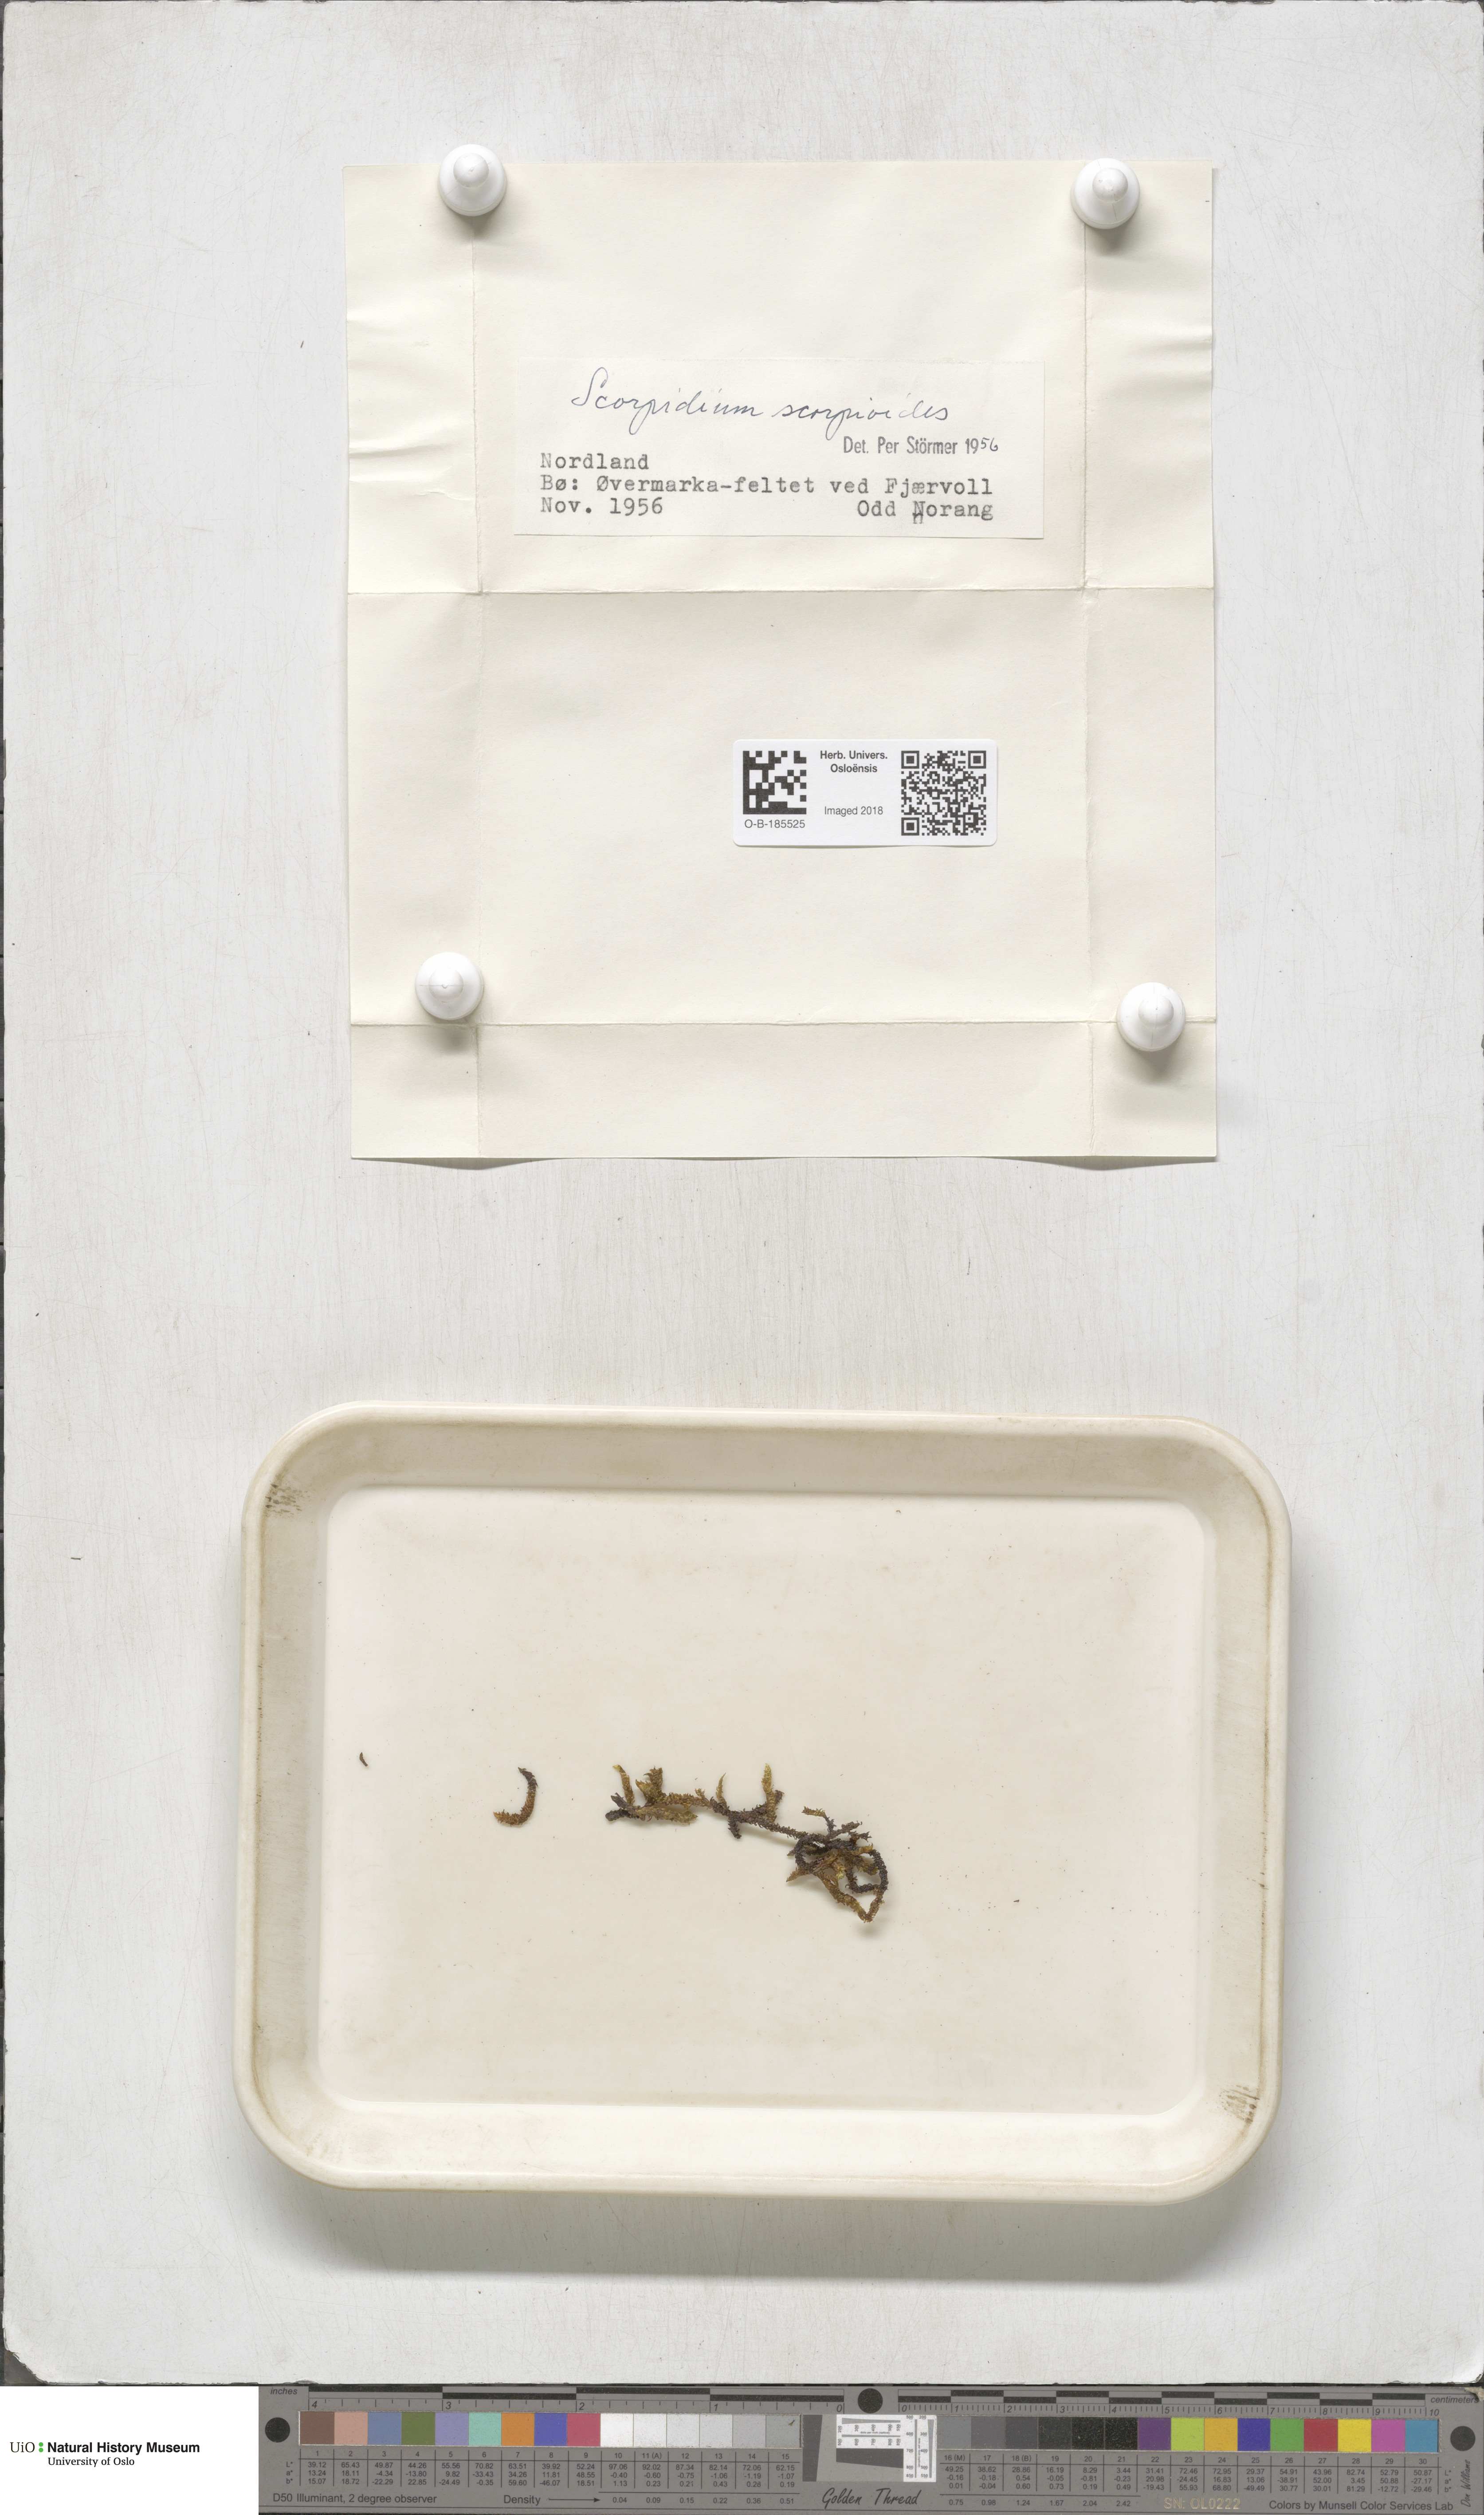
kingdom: Plantae
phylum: Bryophyta
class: Bryopsida
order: Hypnales
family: Scorpidiaceae
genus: Scorpidium
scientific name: Scorpidium scorpioides
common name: Hooked scorpion moss
